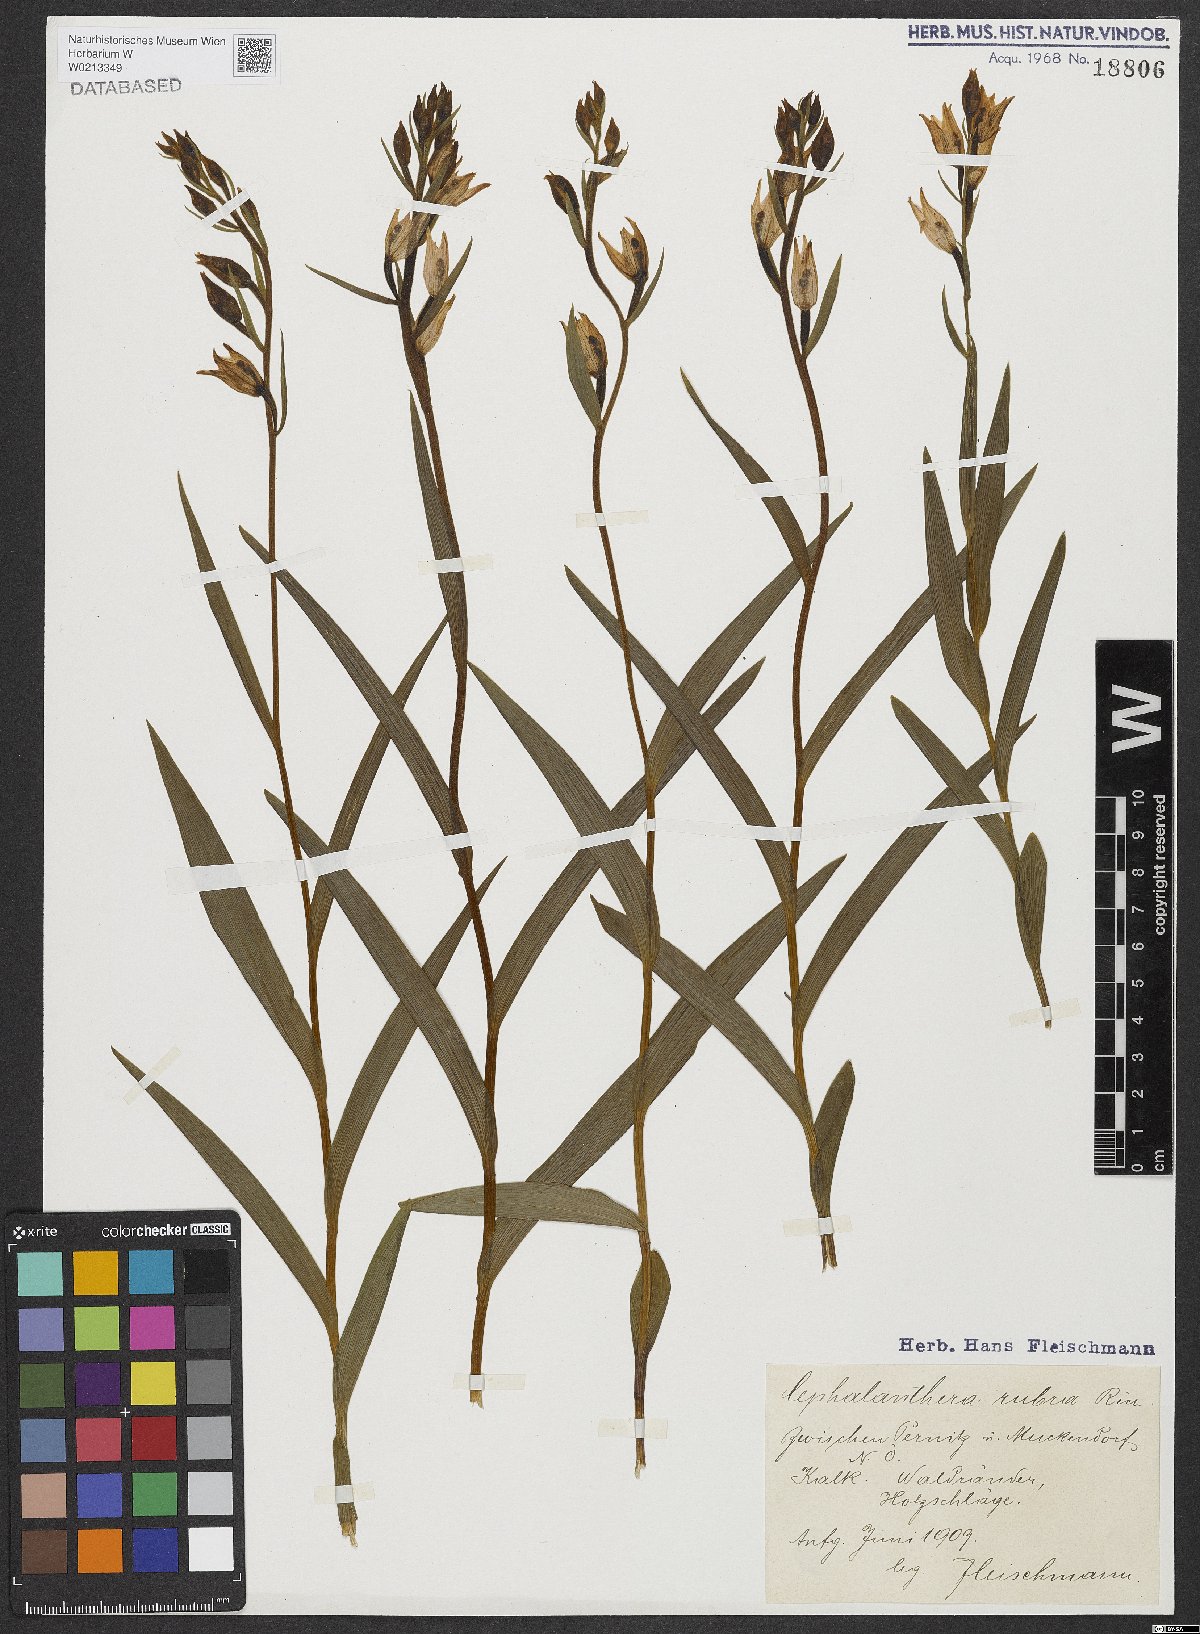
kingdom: Plantae
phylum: Tracheophyta
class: Liliopsida
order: Asparagales
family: Orchidaceae
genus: Cephalanthera
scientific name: Cephalanthera rubra
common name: Red helleborine
